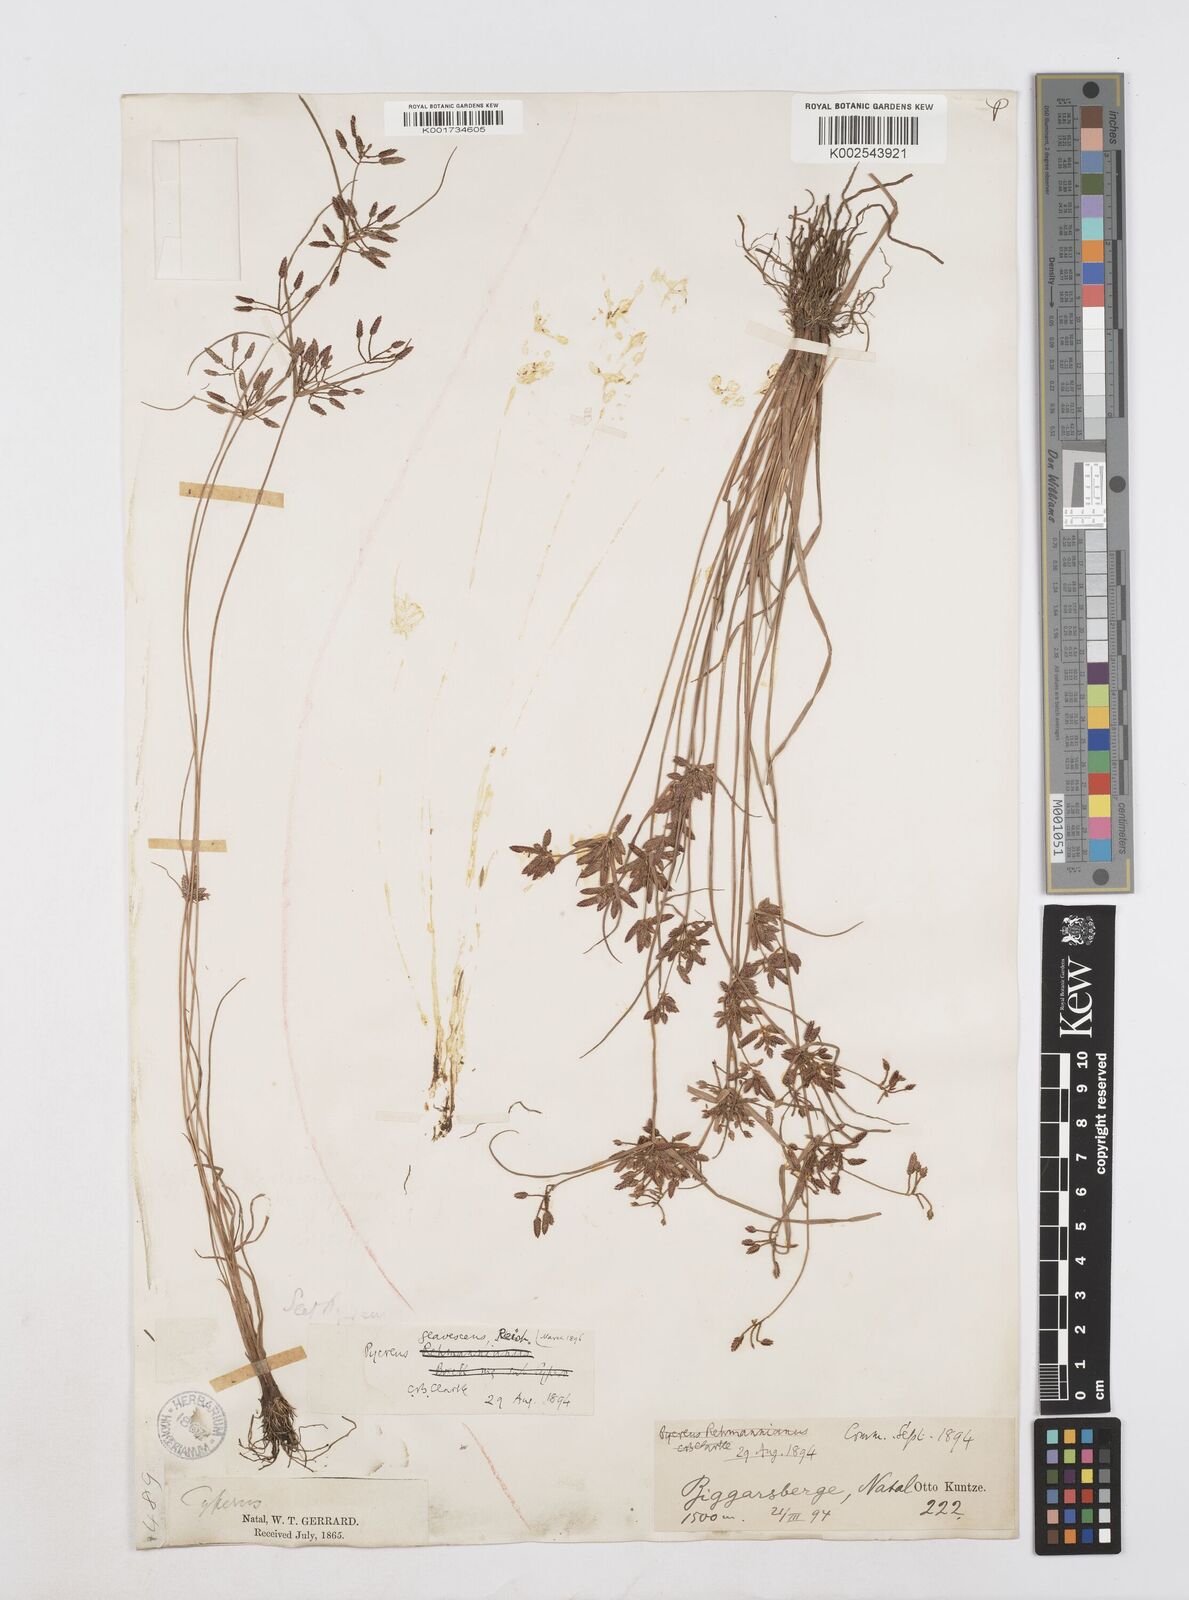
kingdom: Plantae
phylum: Tracheophyta
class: Liliopsida
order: Poales
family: Cyperaceae
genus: Cyperus
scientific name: Cyperus flavescens
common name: Yellow galingale
